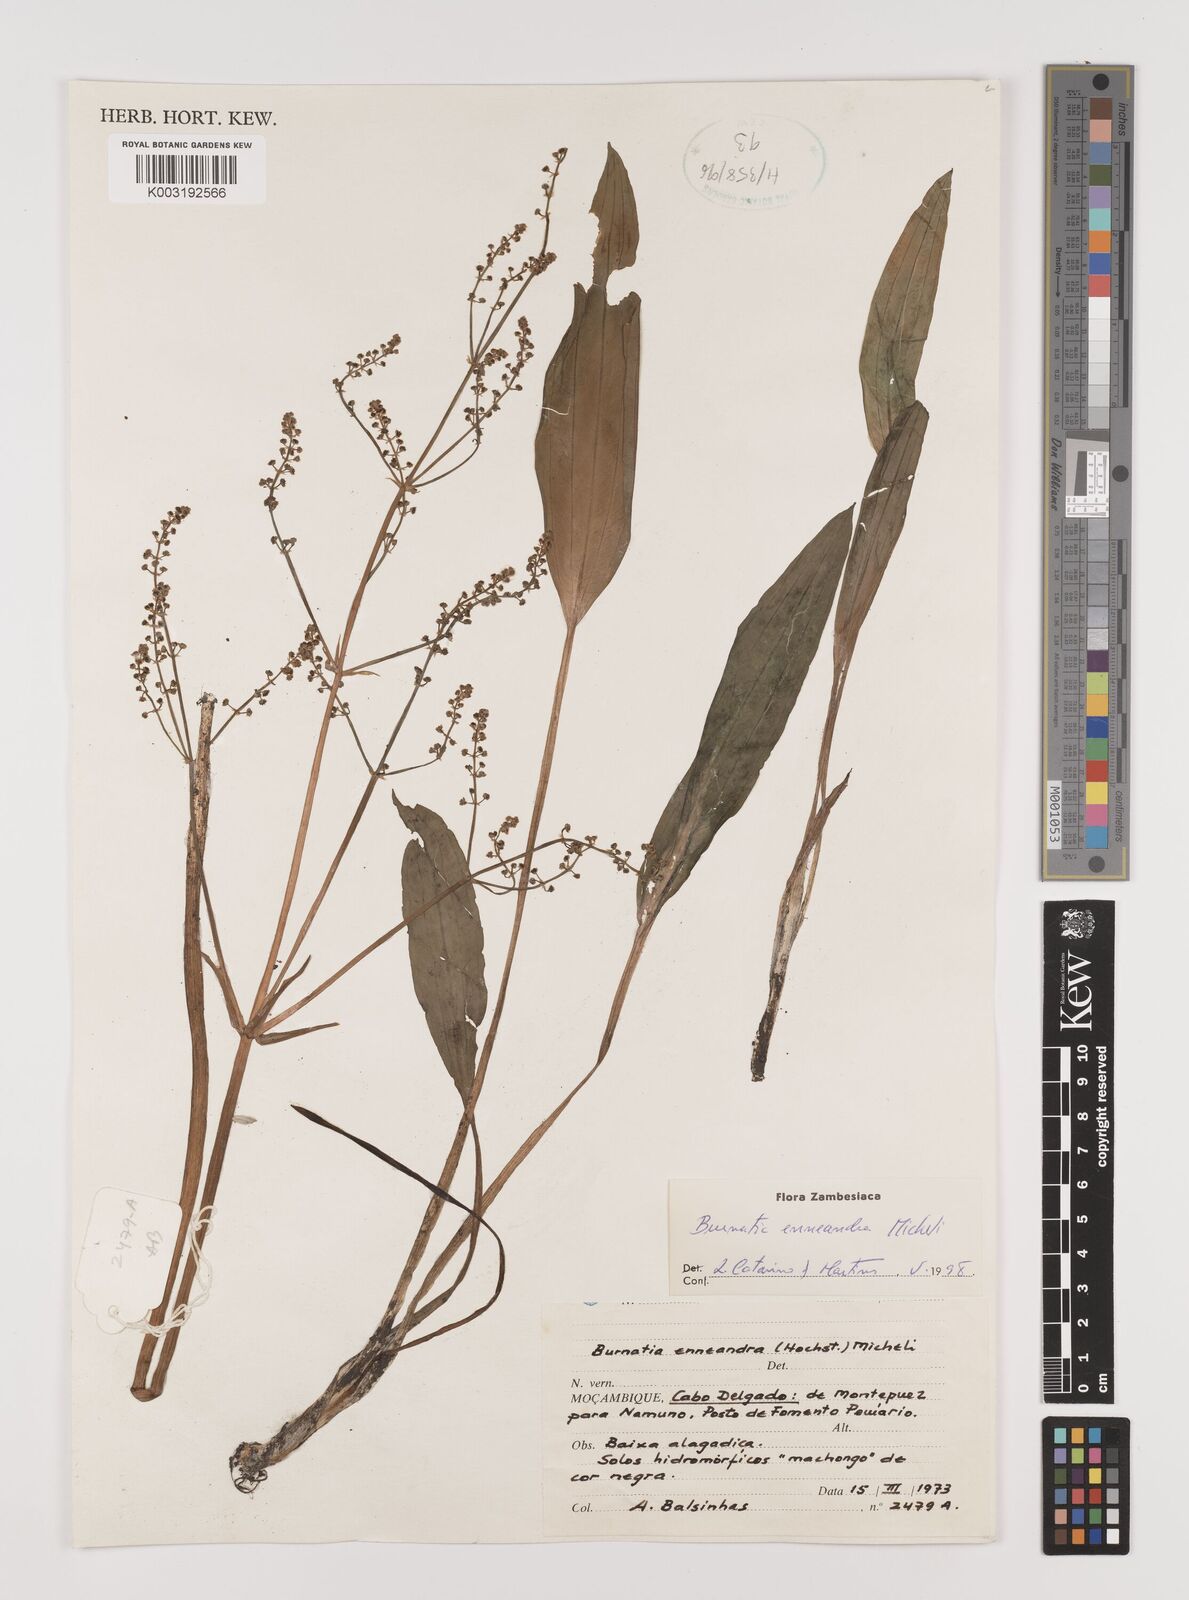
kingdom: Plantae
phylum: Tracheophyta
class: Liliopsida
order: Alismatales
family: Alismataceae
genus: Burnatia
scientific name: Burnatia enneandra
